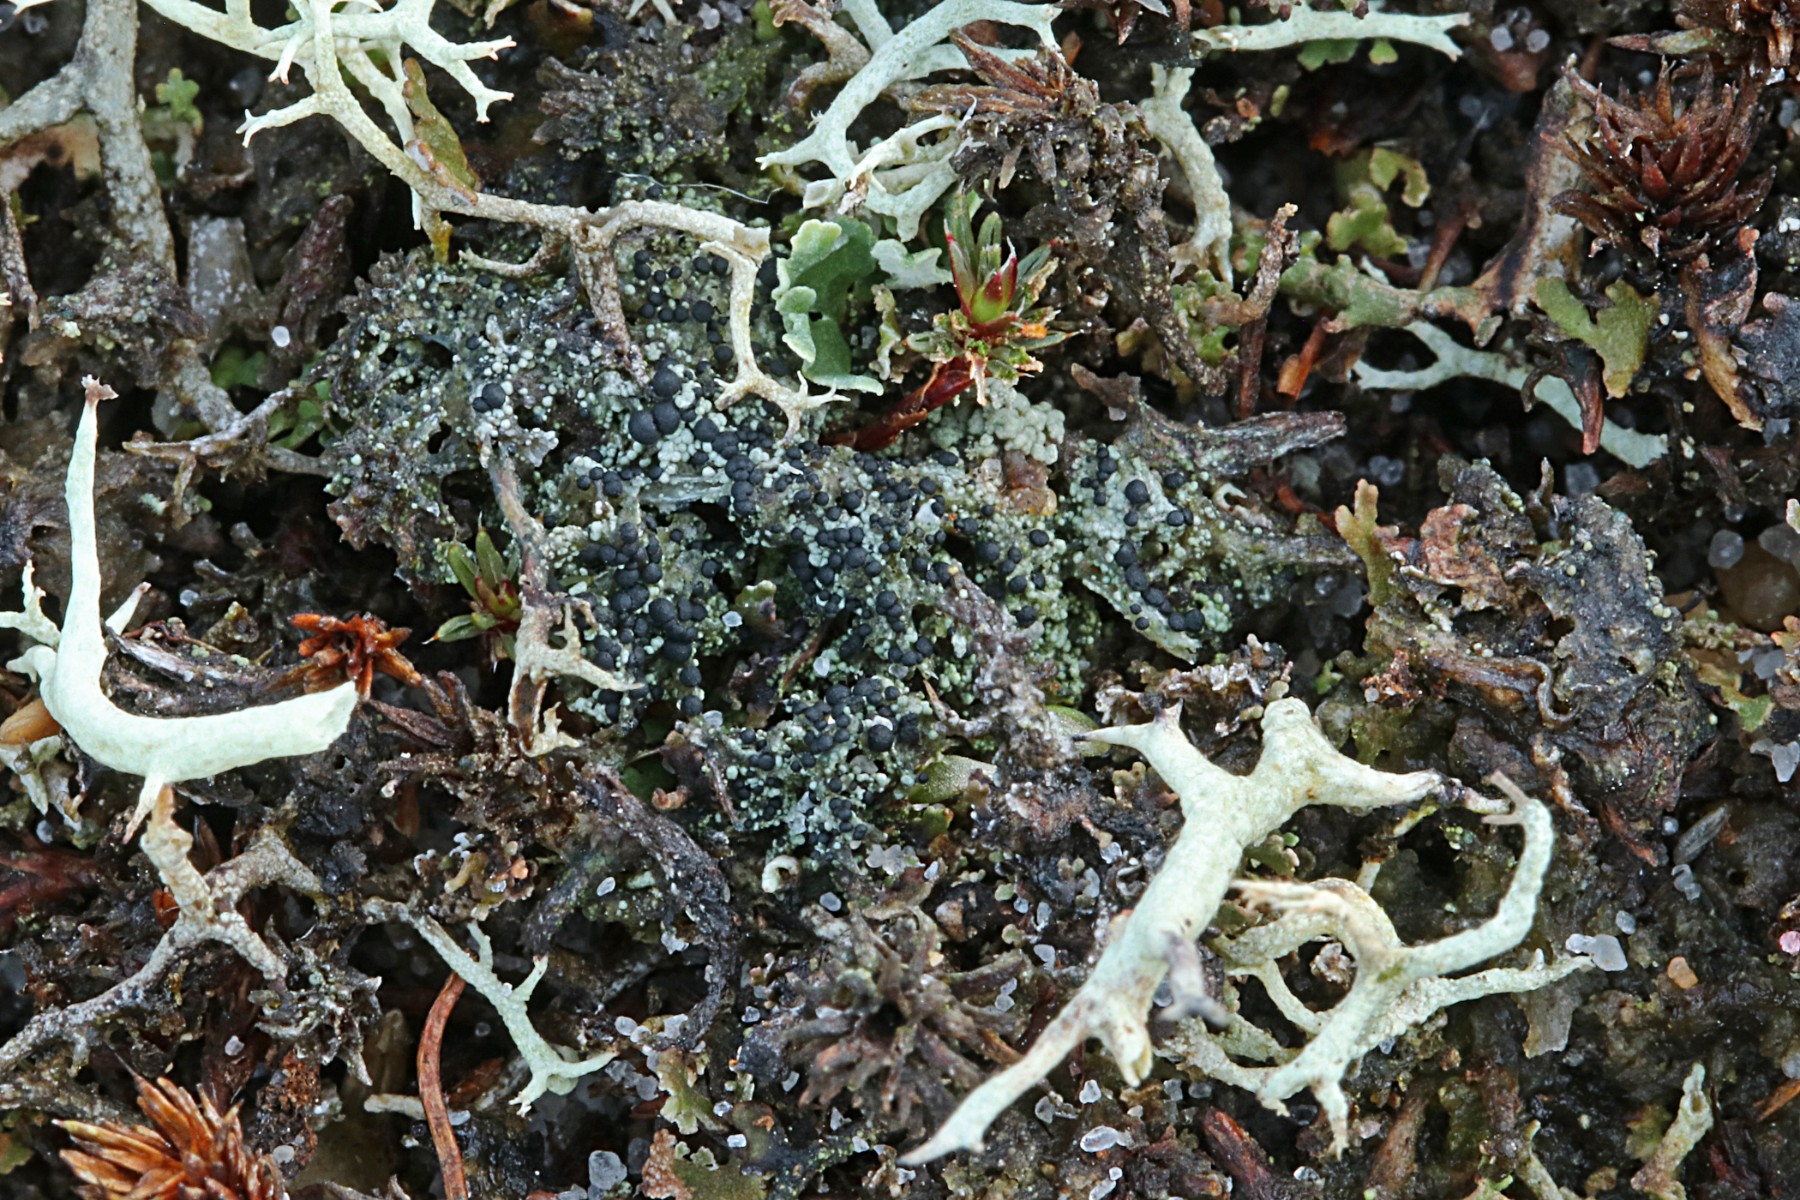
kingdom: Fungi
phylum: Ascomycota
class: Lecanoromycetes
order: Lecanorales
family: Byssolomataceae
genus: Micarea
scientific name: Micarea lignaria
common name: tørve-knaplav
